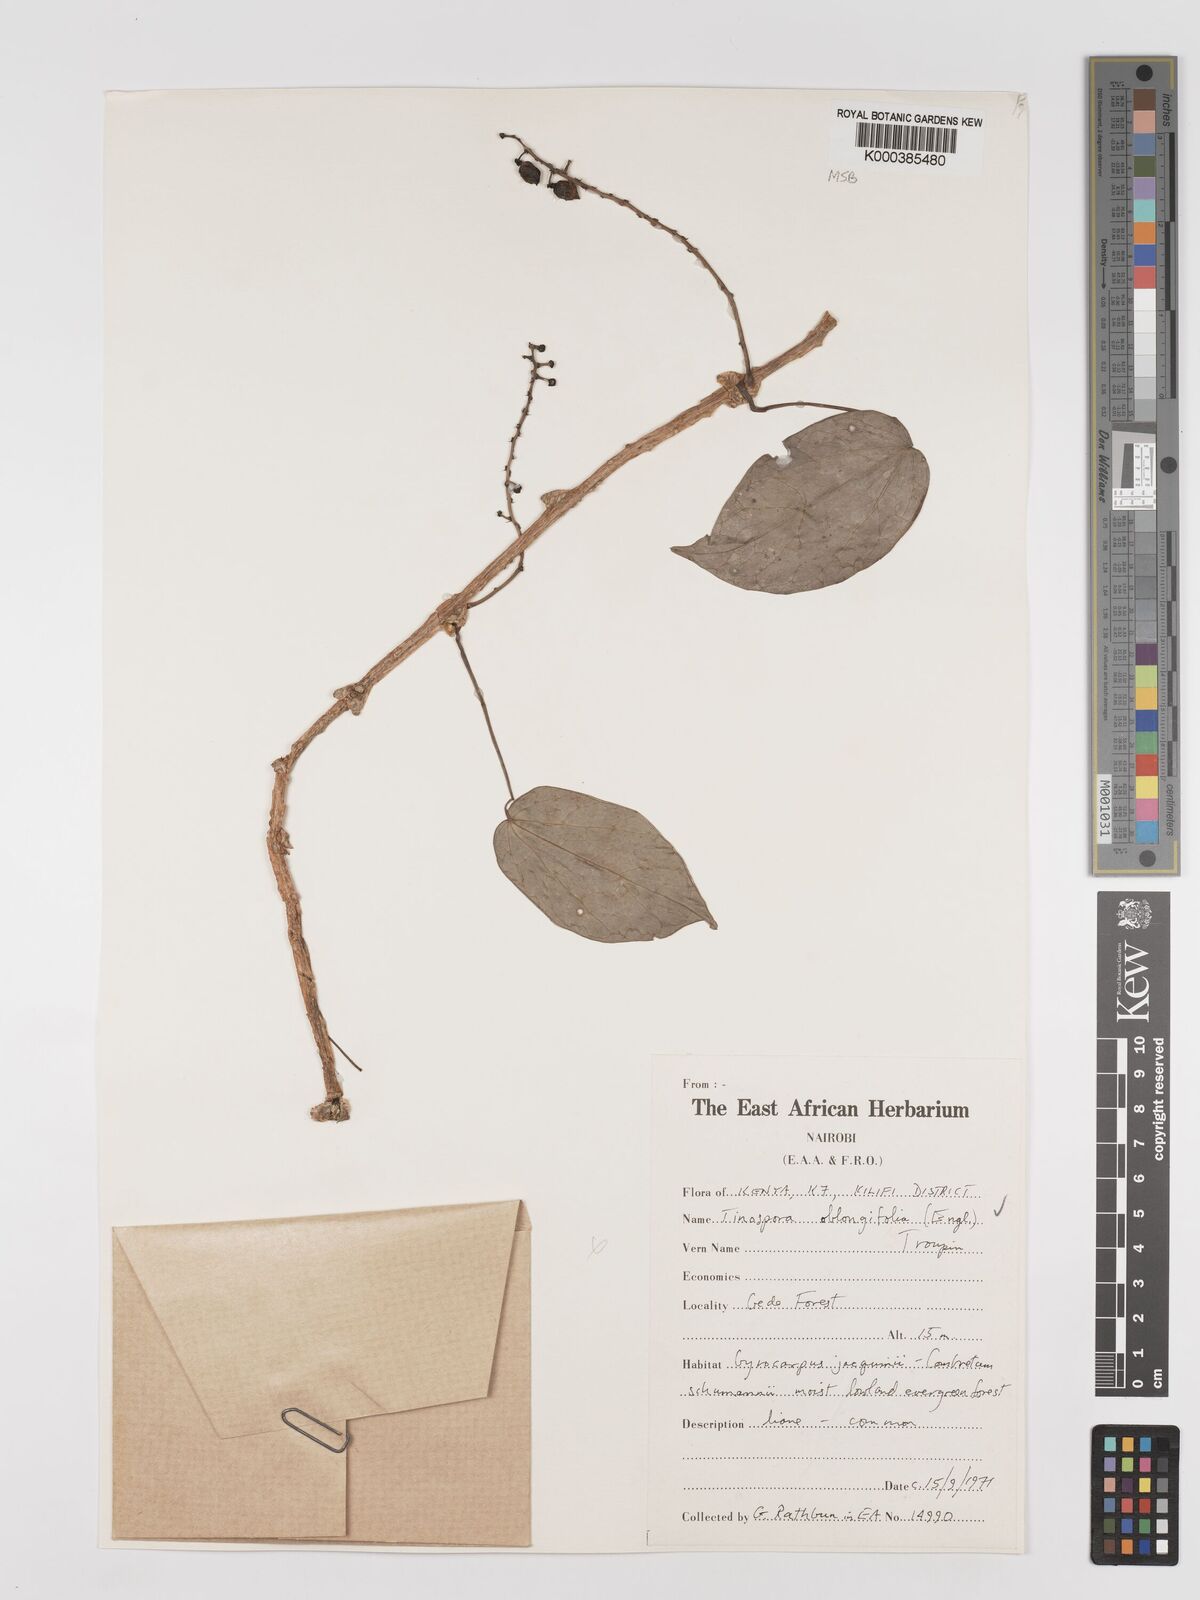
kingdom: Plantae
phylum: Tracheophyta
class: Magnoliopsida
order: Ranunculales
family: Menispermaceae
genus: Tinospora
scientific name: Tinospora oblongifolia
